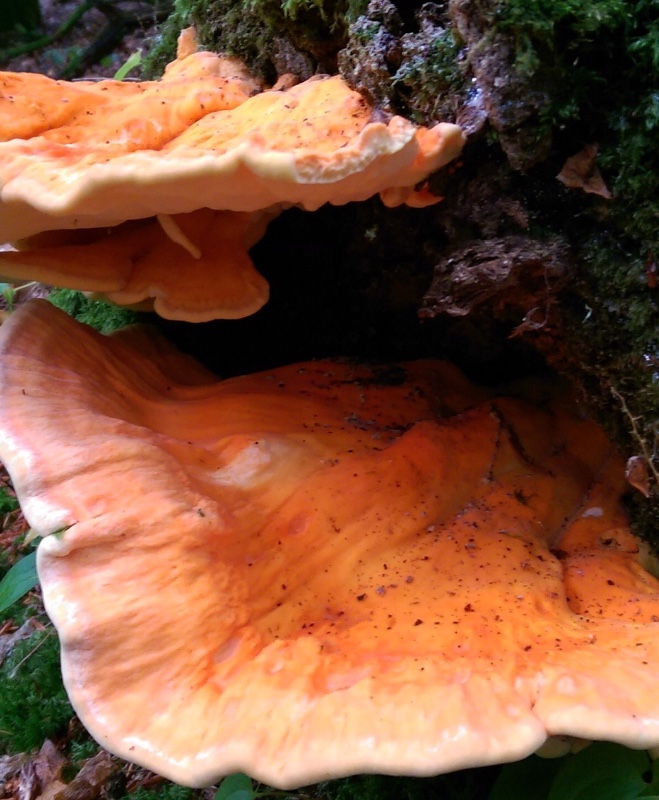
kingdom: Fungi
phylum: Basidiomycota
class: Agaricomycetes
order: Polyporales
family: Laetiporaceae
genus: Laetiporus
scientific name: Laetiporus sulphureus
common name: svovlporesvamp
